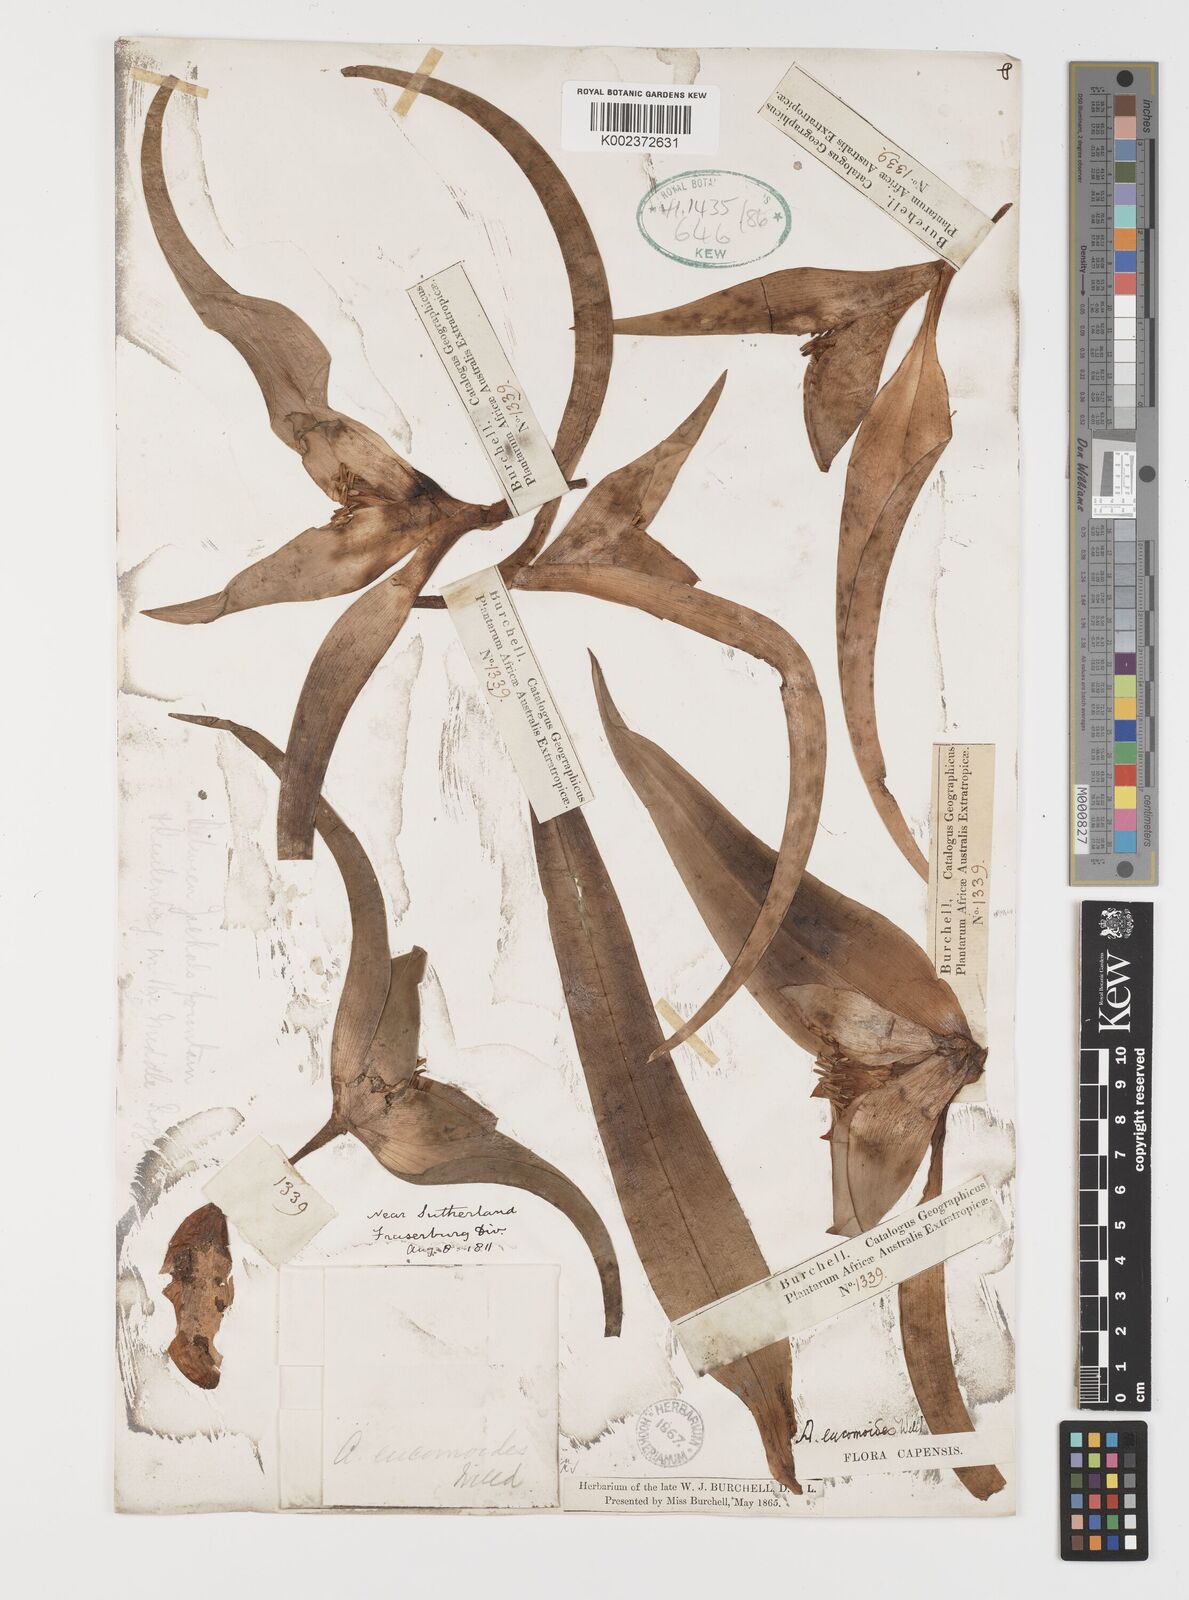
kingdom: Plantae
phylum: Tracheophyta
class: Liliopsida
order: Liliales
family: Colchicaceae
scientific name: Colchicaceae
